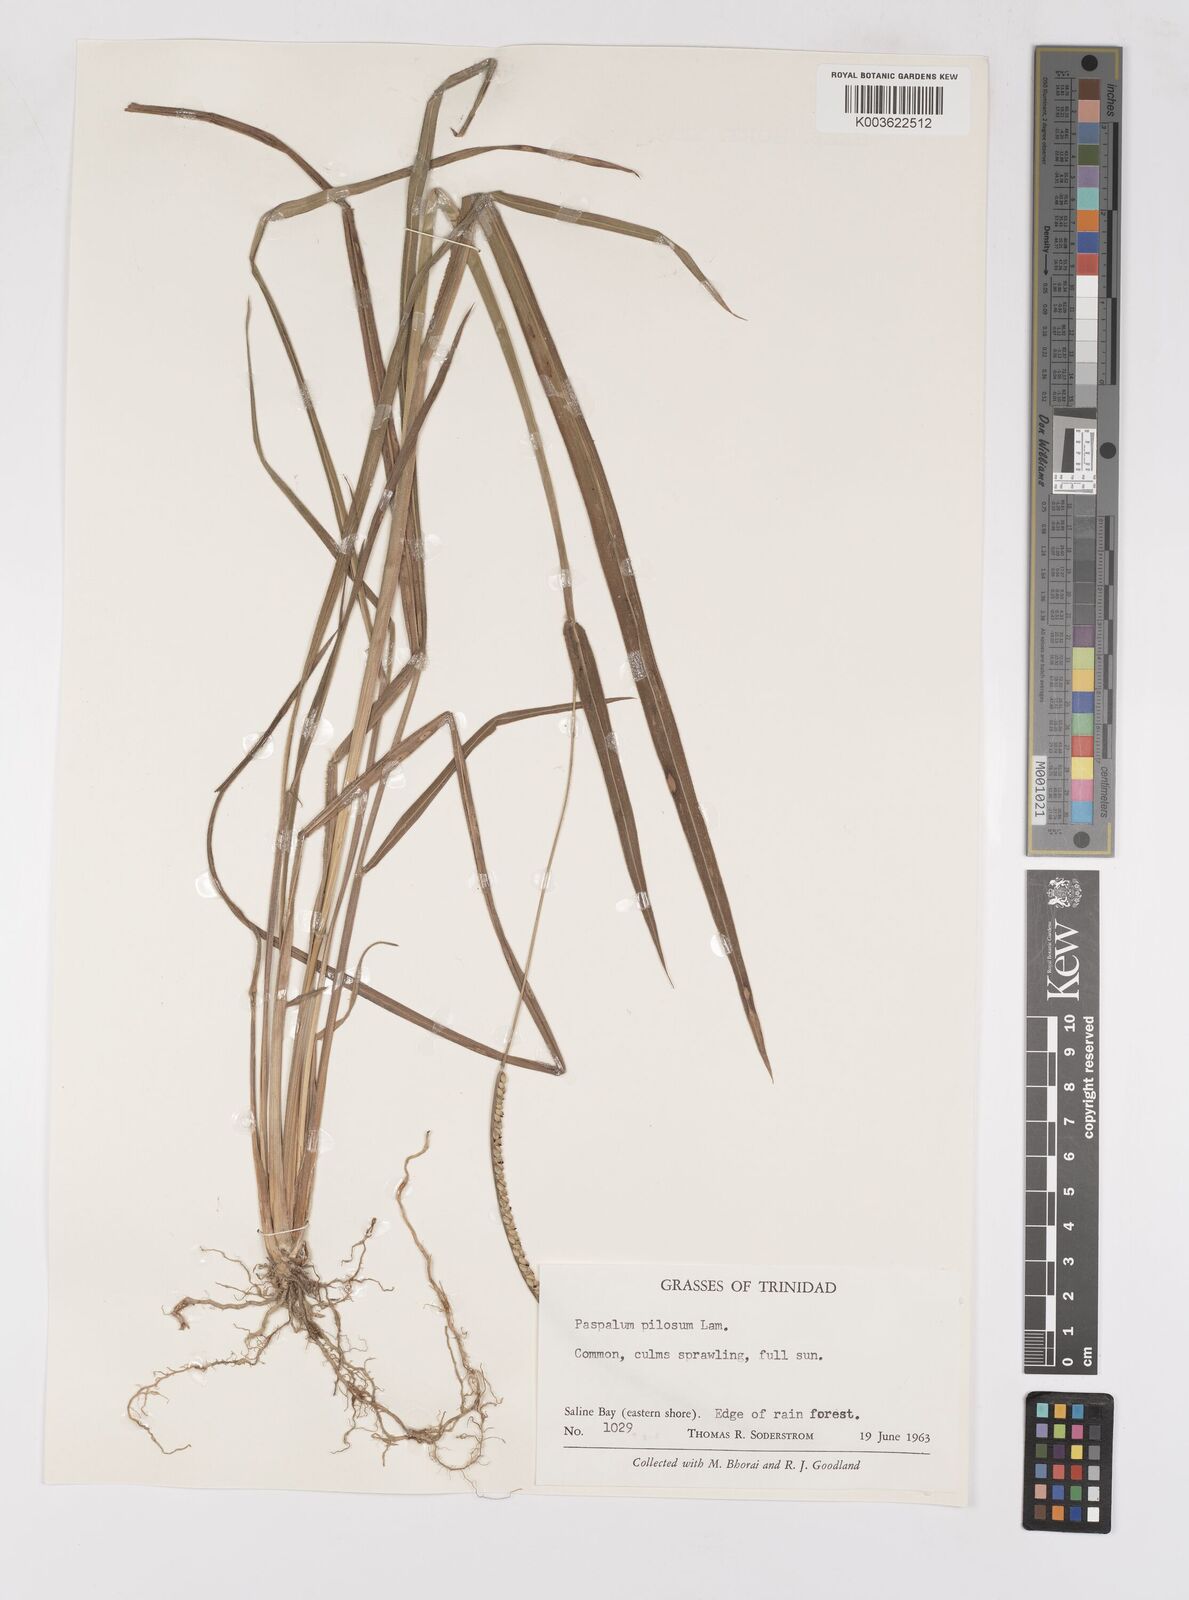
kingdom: Plantae
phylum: Tracheophyta
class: Liliopsida
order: Poales
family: Poaceae
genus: Paspalum
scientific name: Paspalum pilosum
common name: Crowngrass
